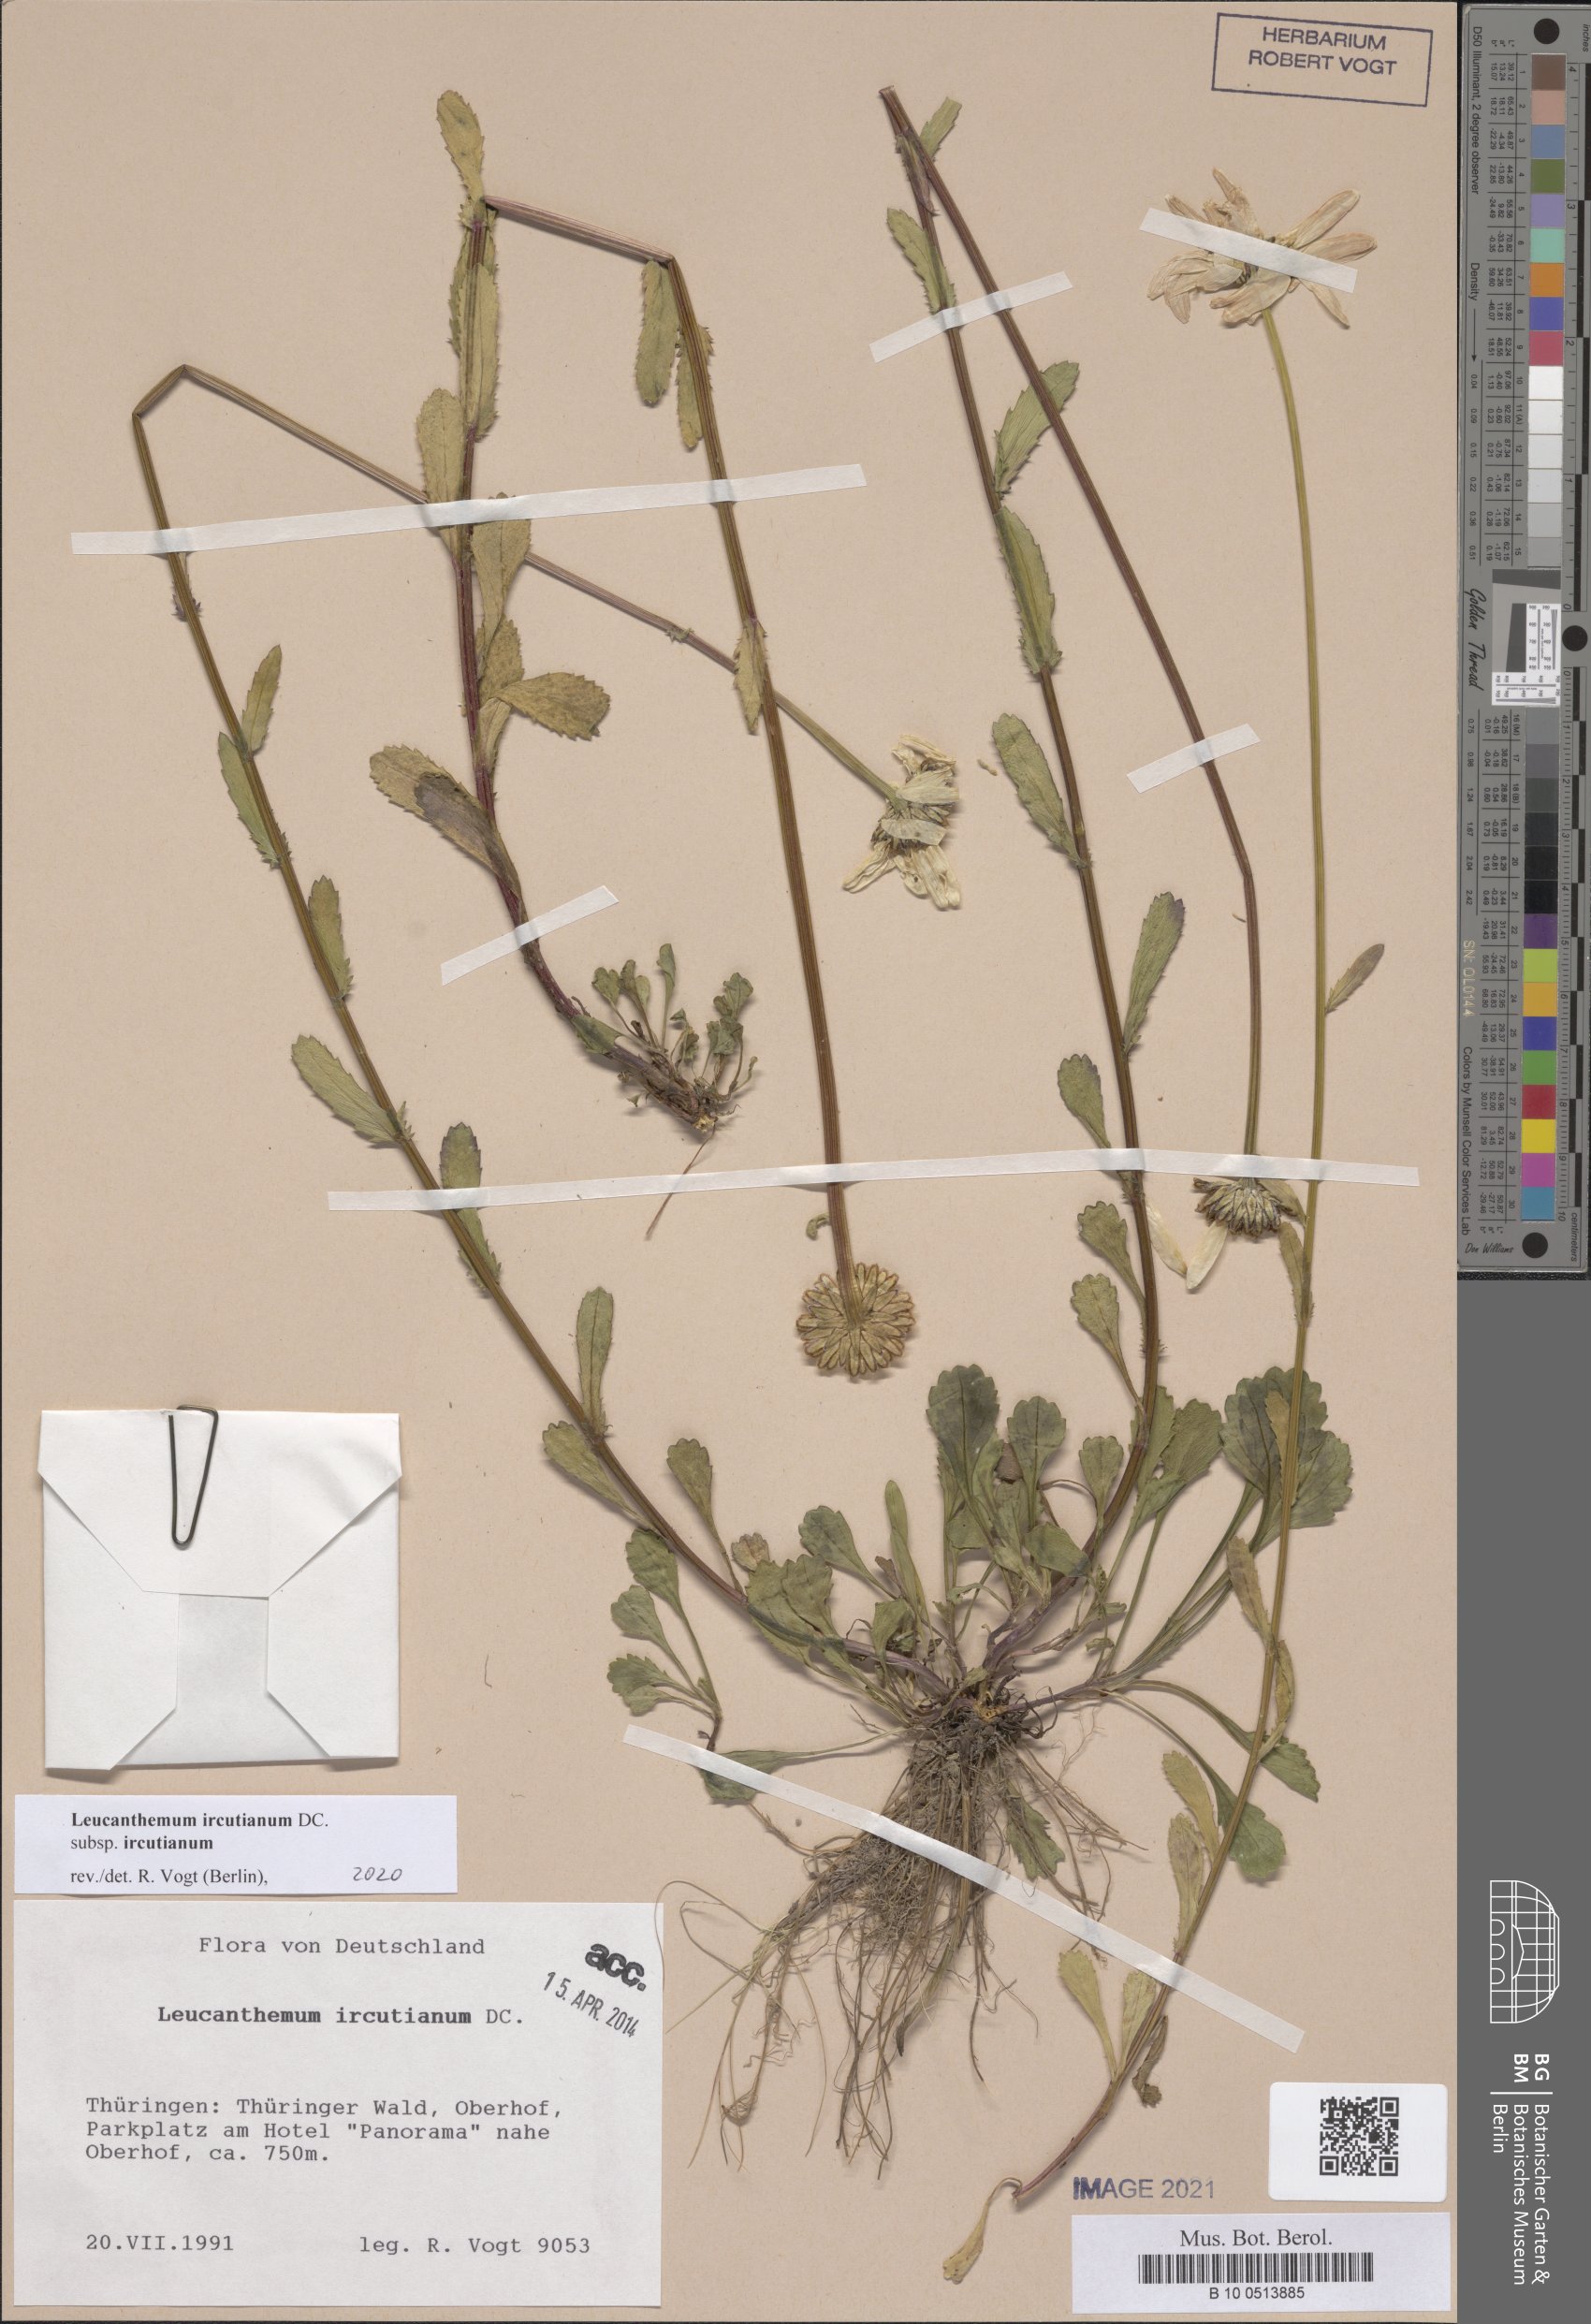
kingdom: Plantae
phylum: Tracheophyta
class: Magnoliopsida
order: Asterales
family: Asteraceae
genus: Leucanthemum
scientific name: Leucanthemum ircutianum
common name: Daisy
